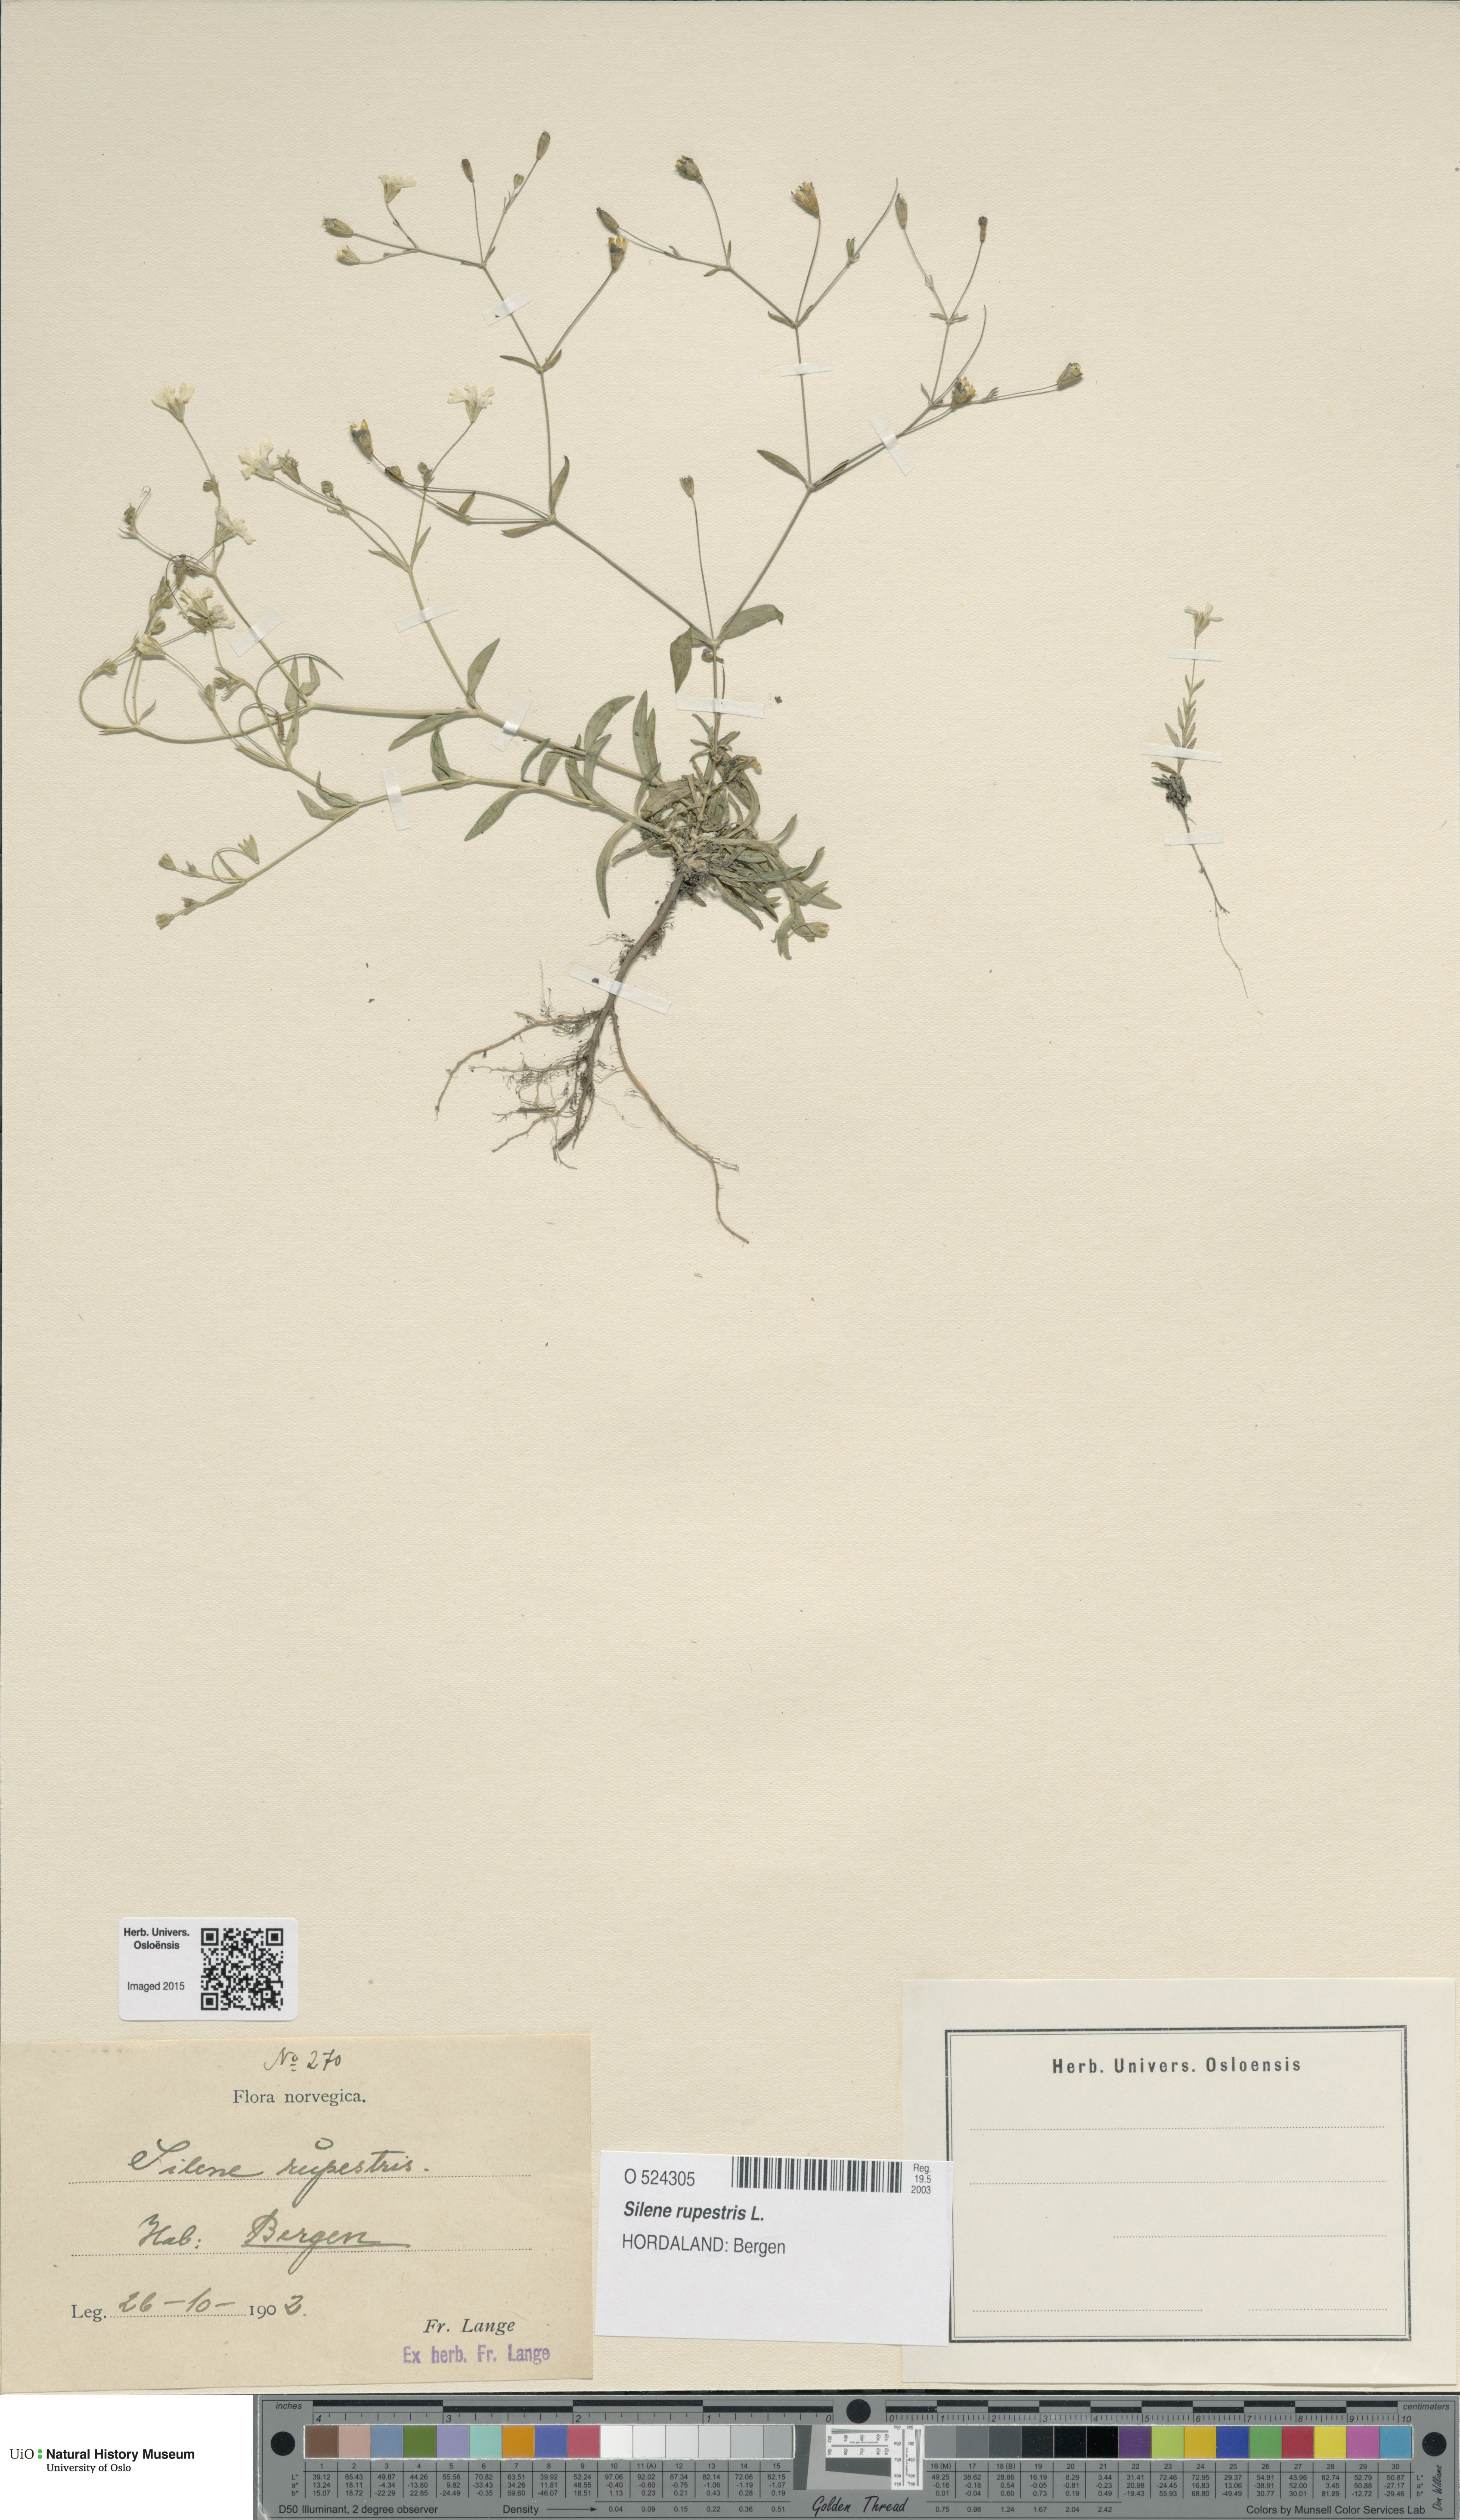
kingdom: Plantae
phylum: Tracheophyta
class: Magnoliopsida
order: Caryophyllales
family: Caryophyllaceae
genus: Atocion
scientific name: Atocion rupestre
